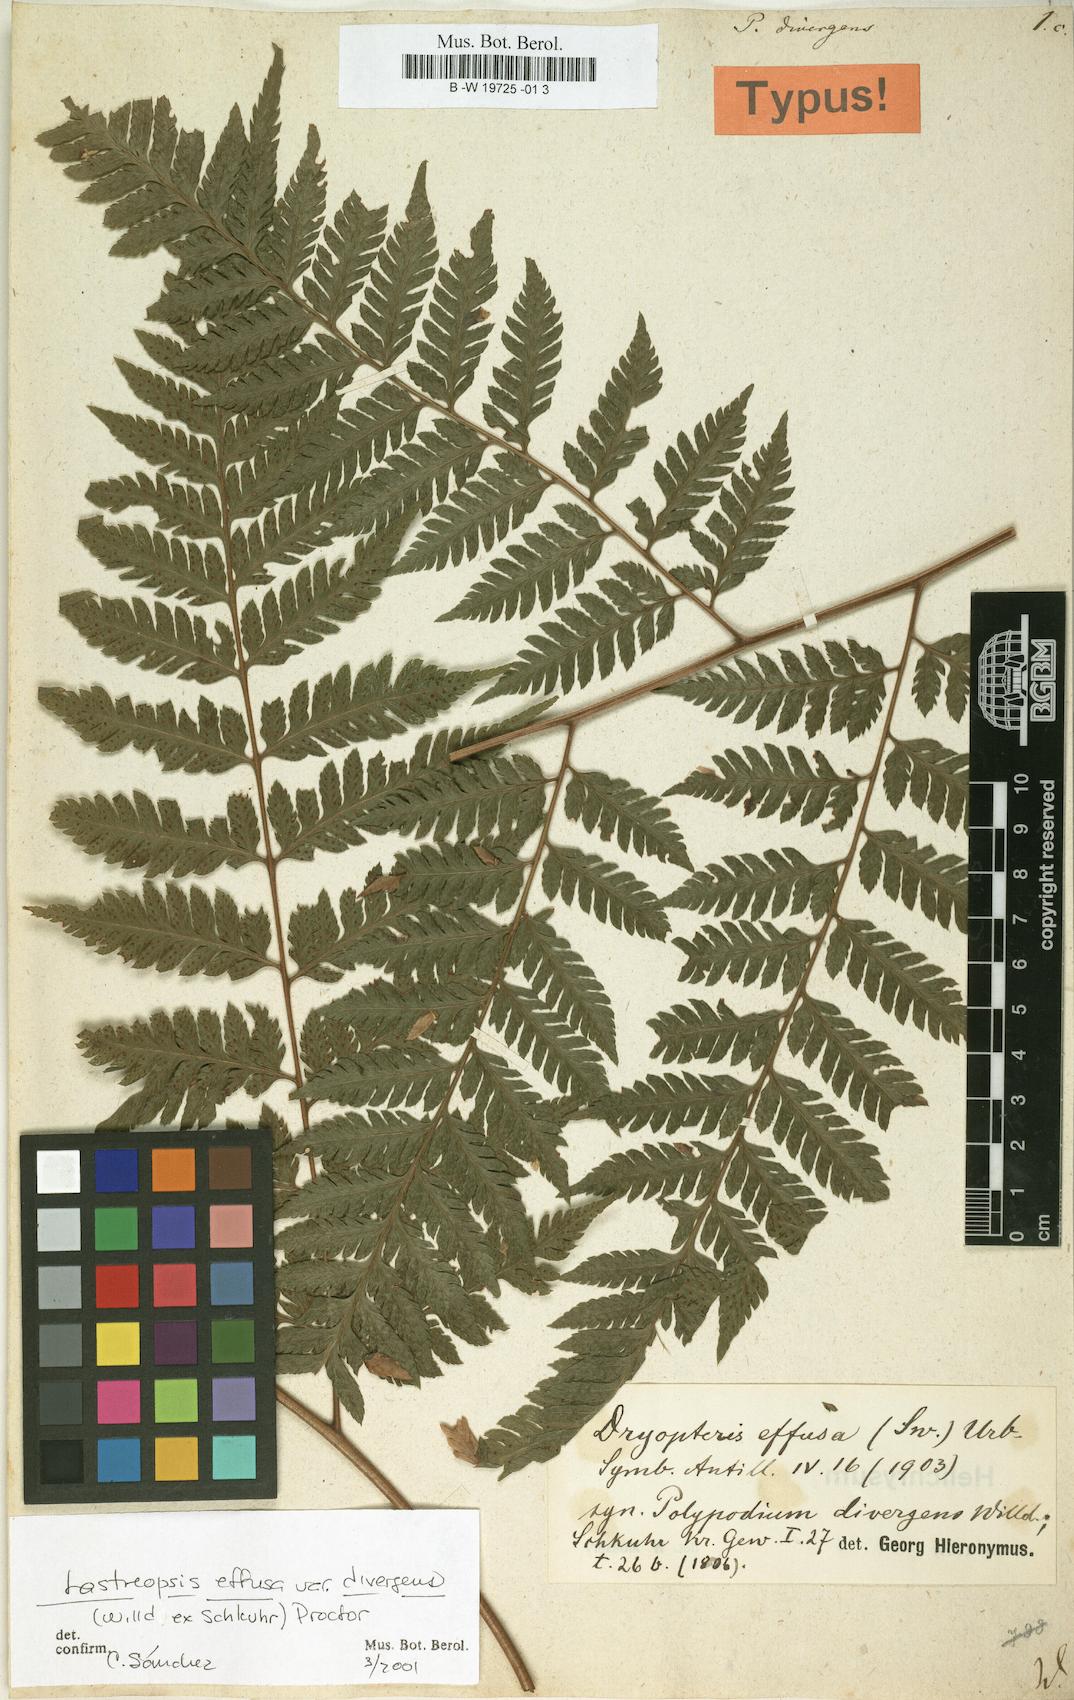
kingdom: Plantae
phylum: Tracheophyta
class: Polypodiopsida
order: Polypodiales
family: Dryopteridaceae
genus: Parapolystichum
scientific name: Parapolystichum effusum
